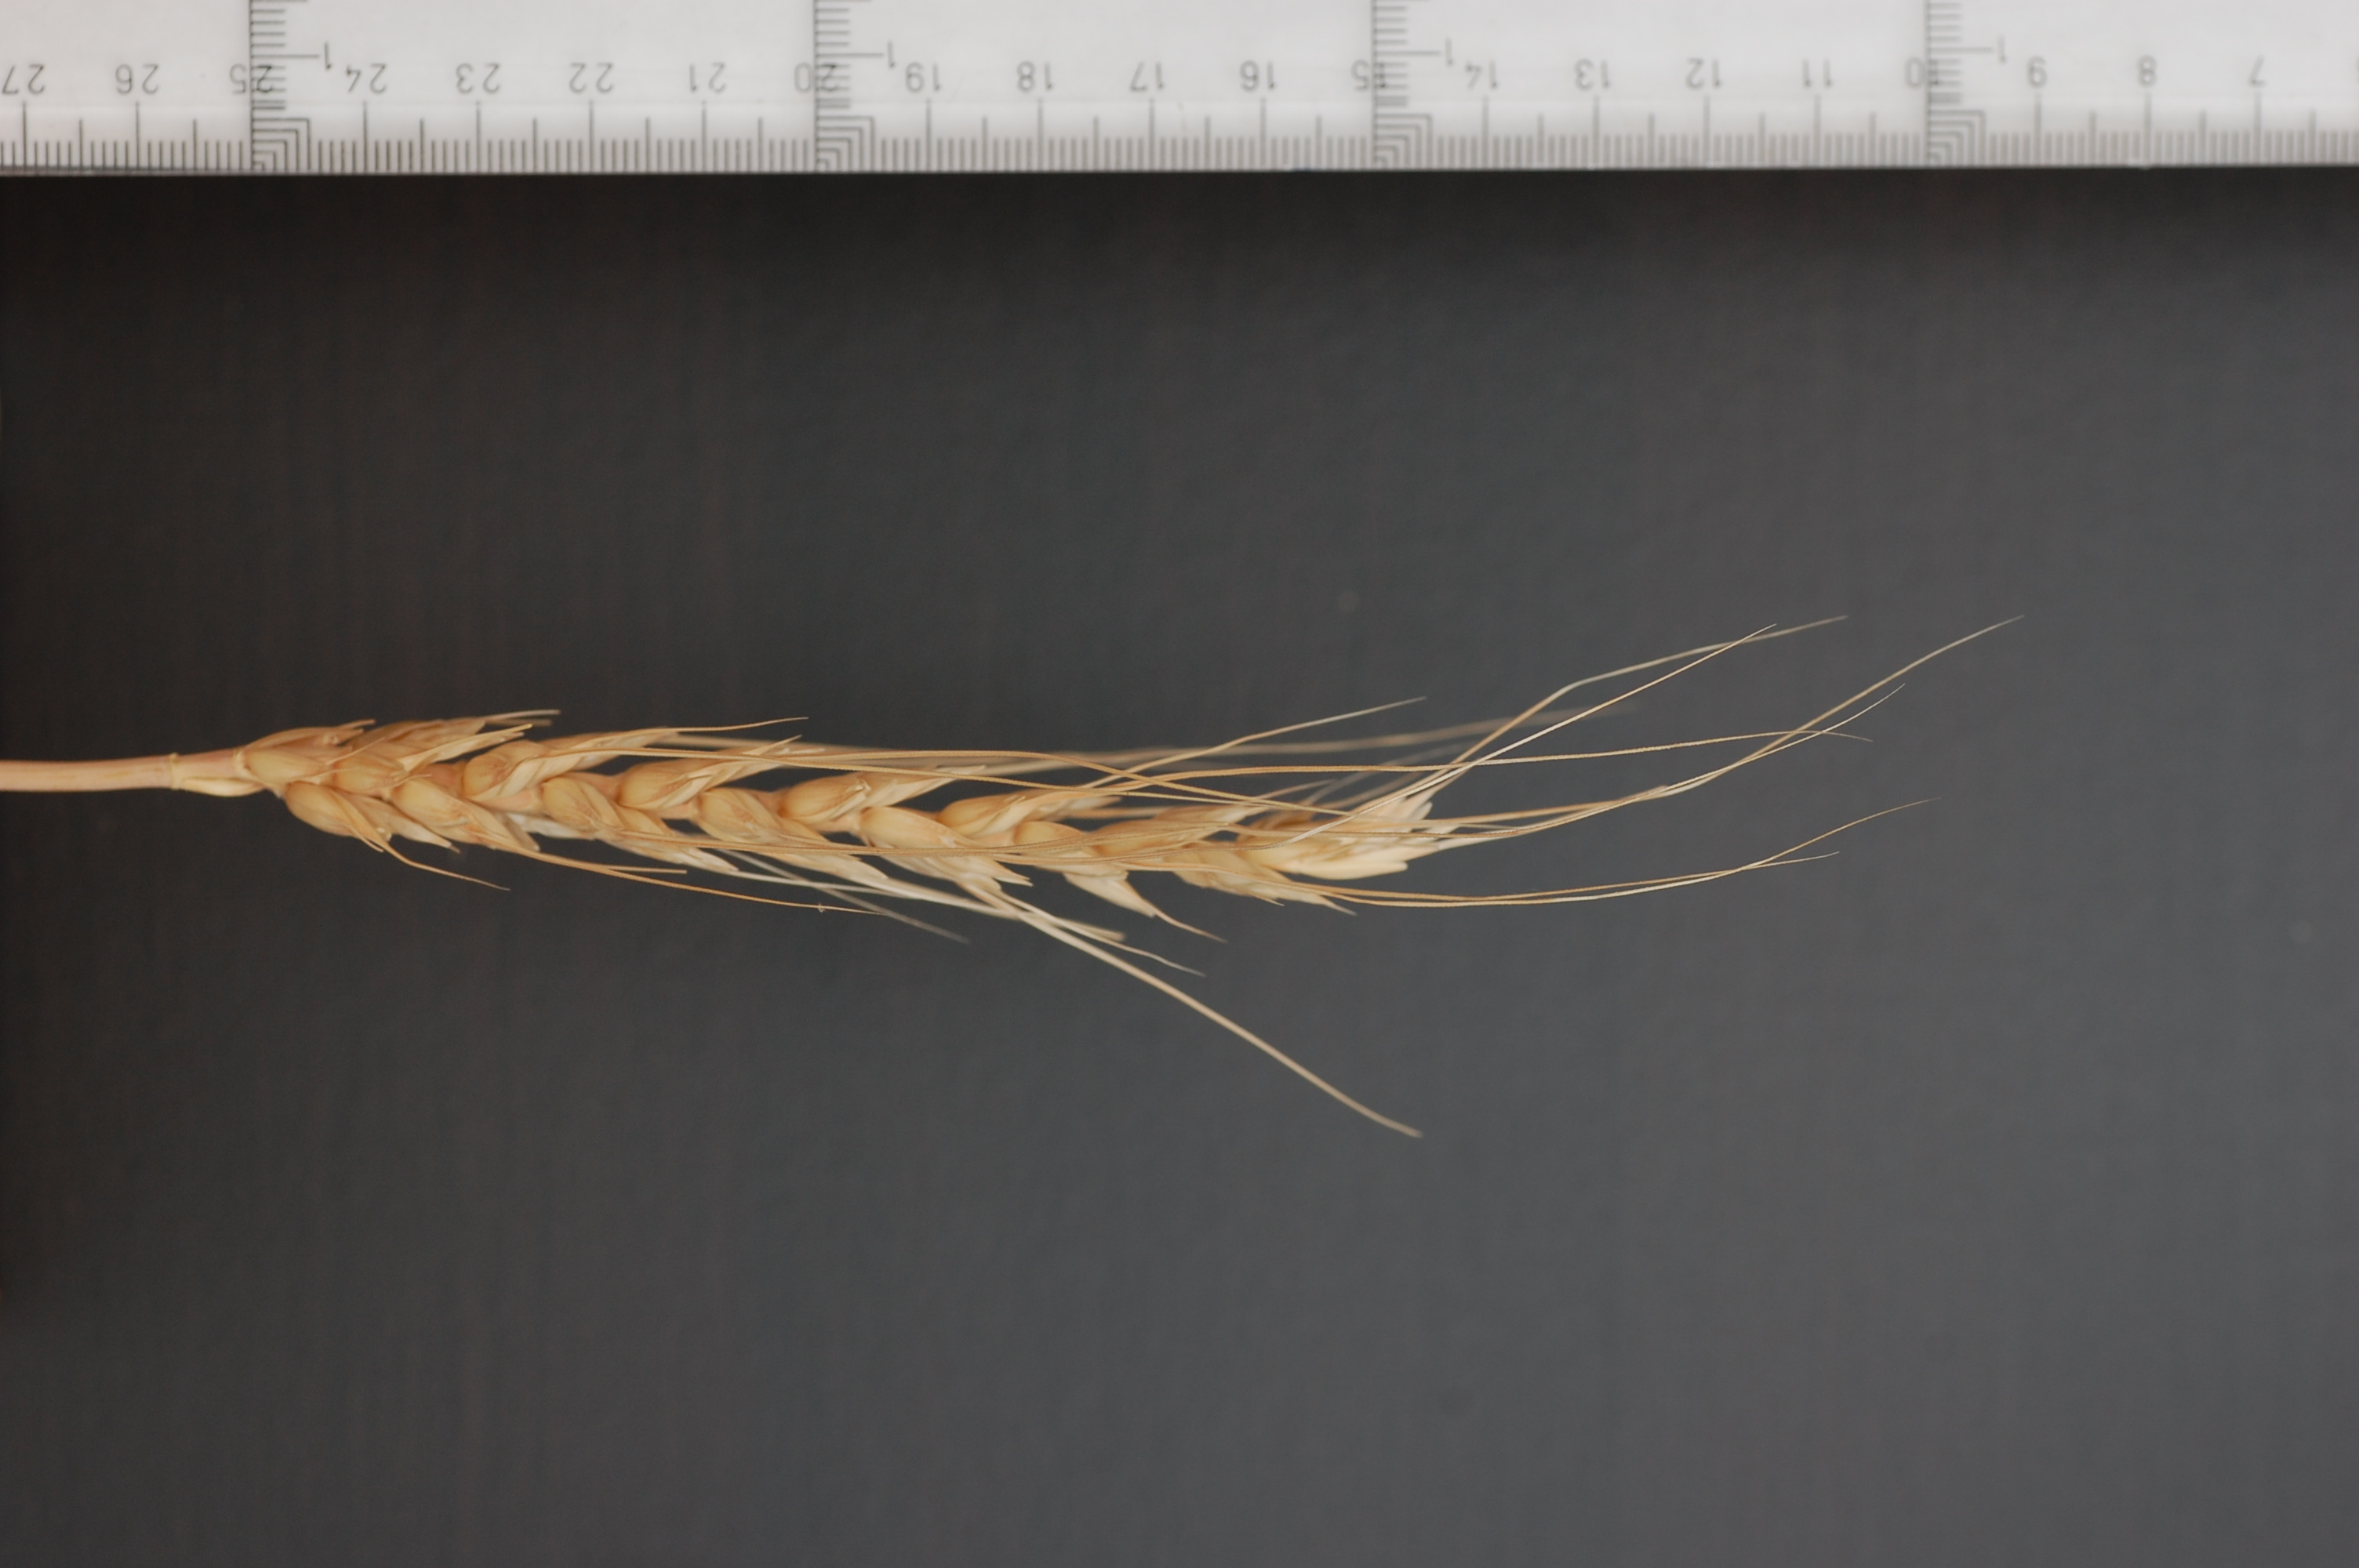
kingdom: Plantae
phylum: Tracheophyta
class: Liliopsida
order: Poales
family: Poaceae
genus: Triticum
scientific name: Triticum aestivum
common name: Common wheat
